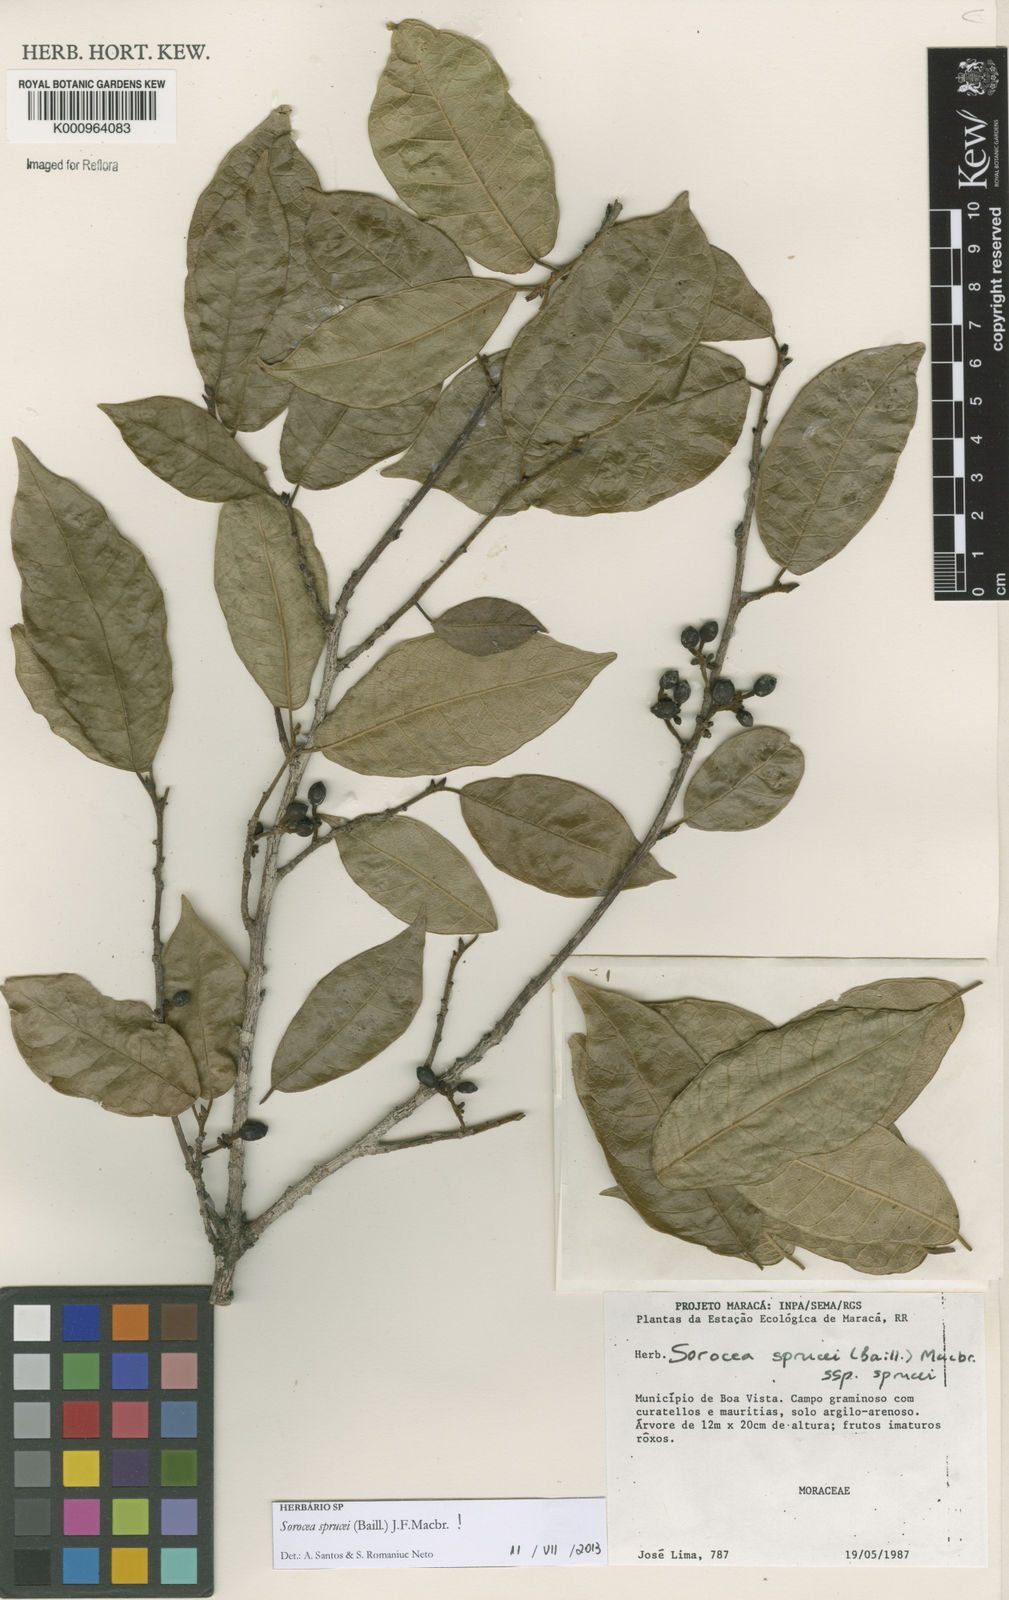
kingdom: Plantae
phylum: Tracheophyta
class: Magnoliopsida
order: Rosales
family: Moraceae
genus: Sorocea
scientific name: Sorocea sprucei
